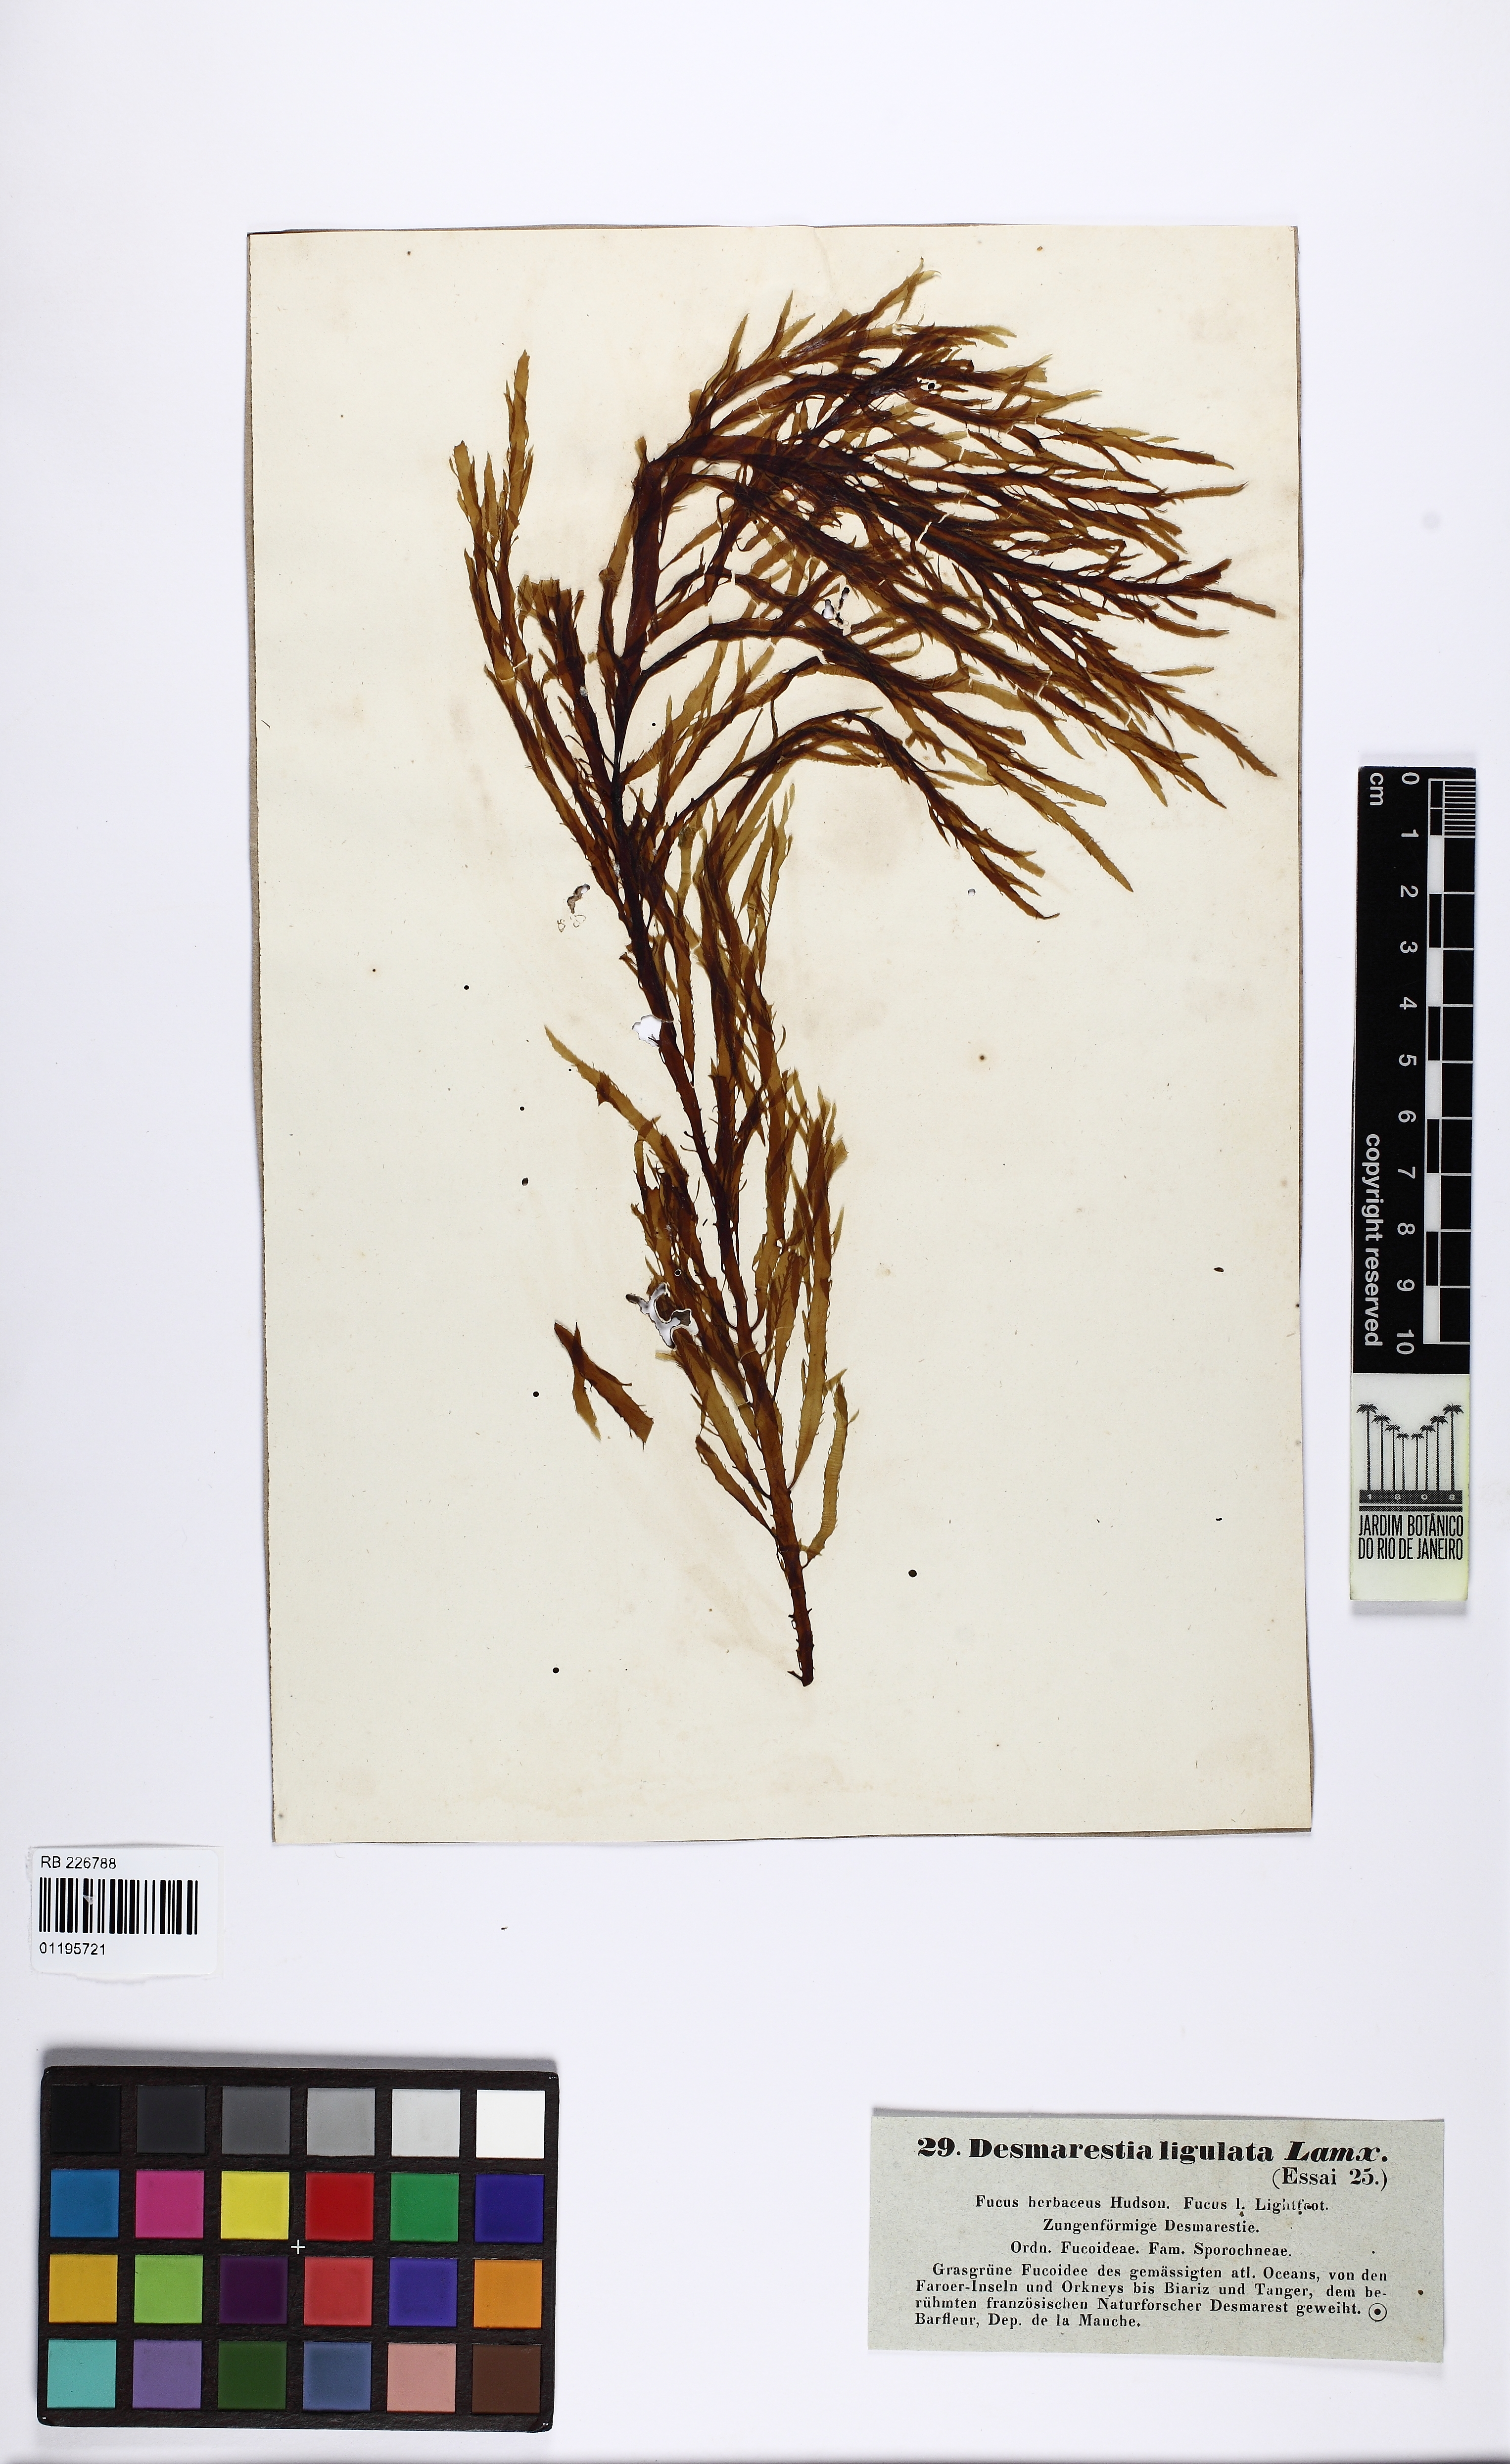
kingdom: Chromista
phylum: Ochrophyta
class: Phaeophyceae
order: Desmarestiales
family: Desmarestiaceae
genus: Desmarestia
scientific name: Desmarestia ligulata
